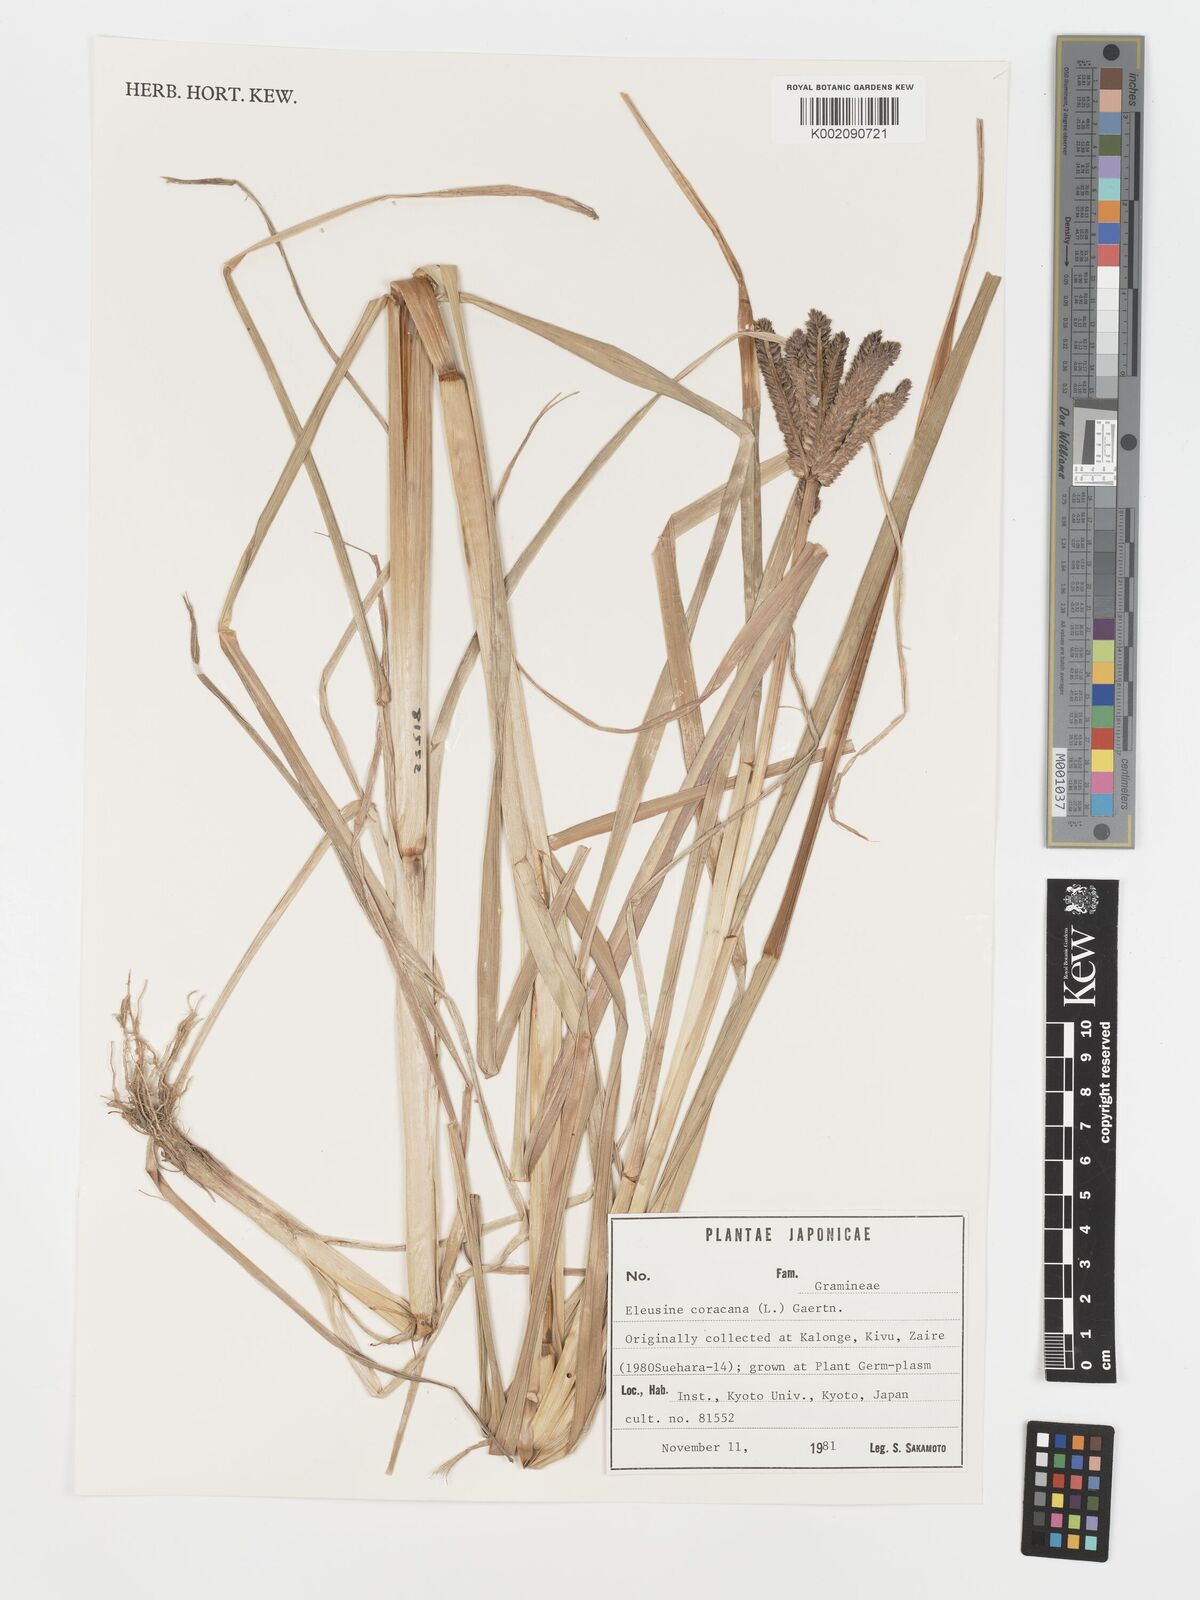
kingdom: Plantae
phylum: Tracheophyta
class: Liliopsida
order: Poales
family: Poaceae
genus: Eleusine
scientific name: Eleusine coracana
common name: Finger millet
